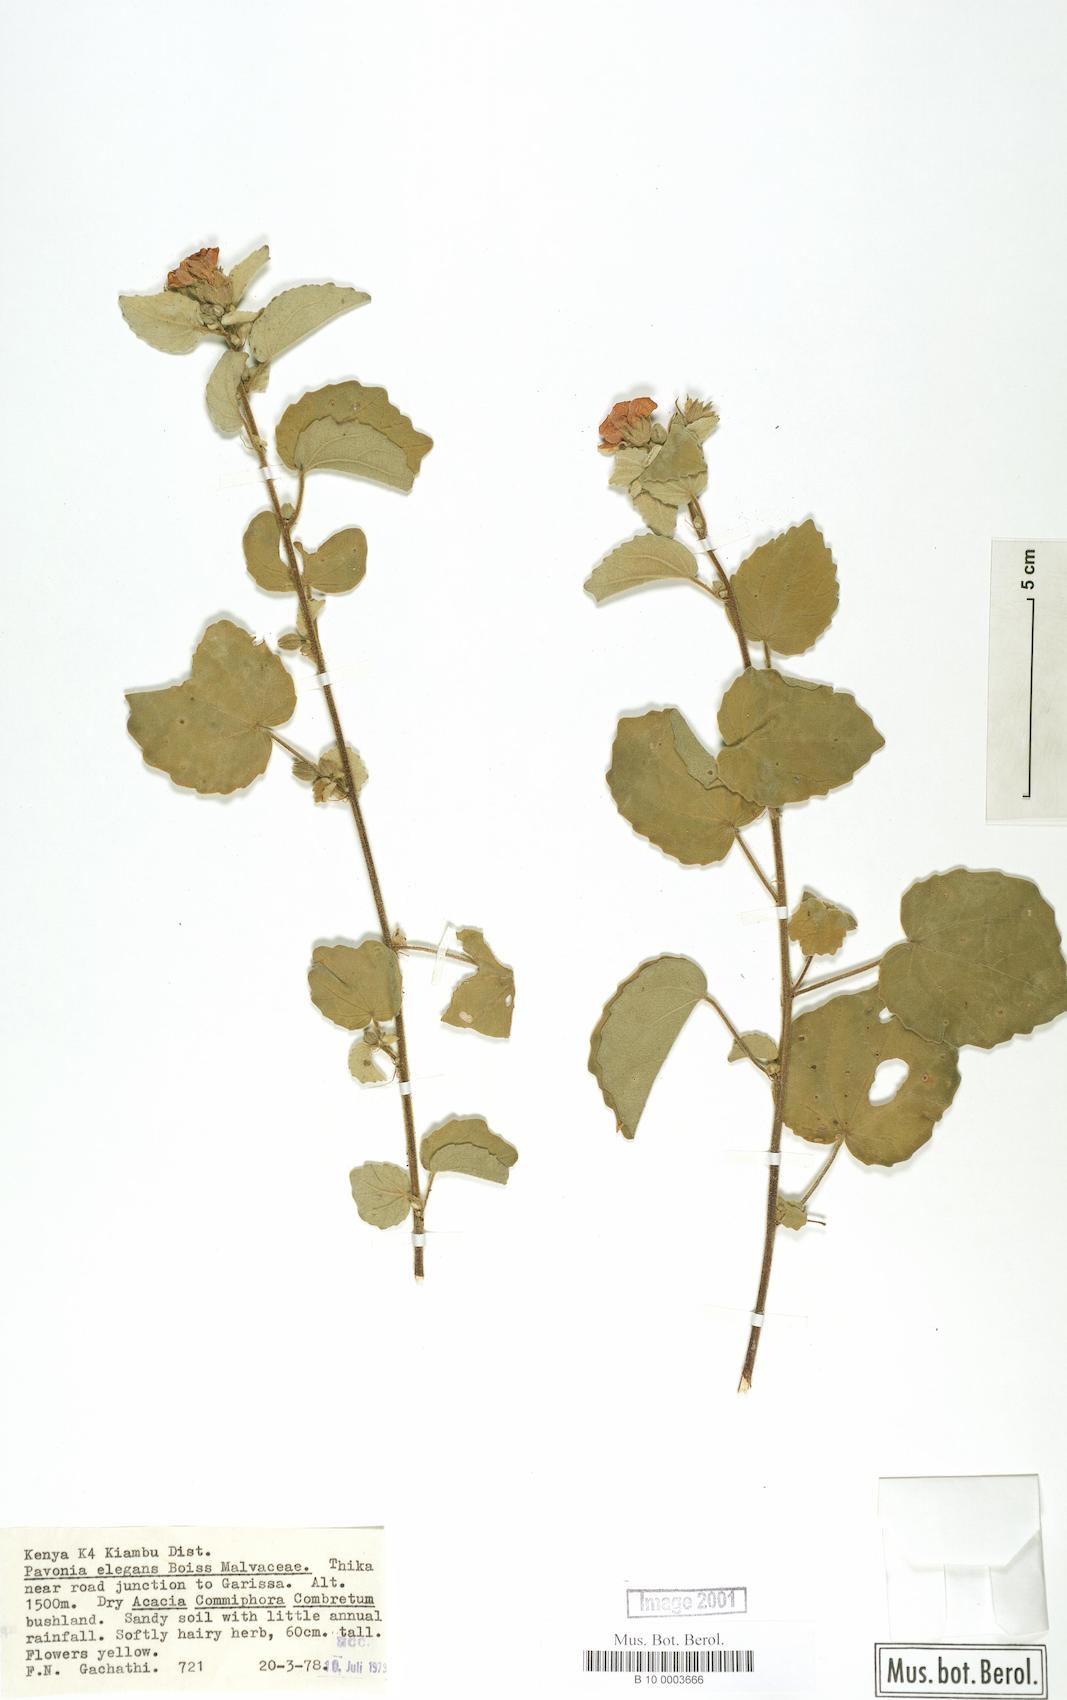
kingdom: Plantae
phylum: Tracheophyta
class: Magnoliopsida
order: Malvales
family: Malvaceae
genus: Pavonia
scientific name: Pavonia elegans
